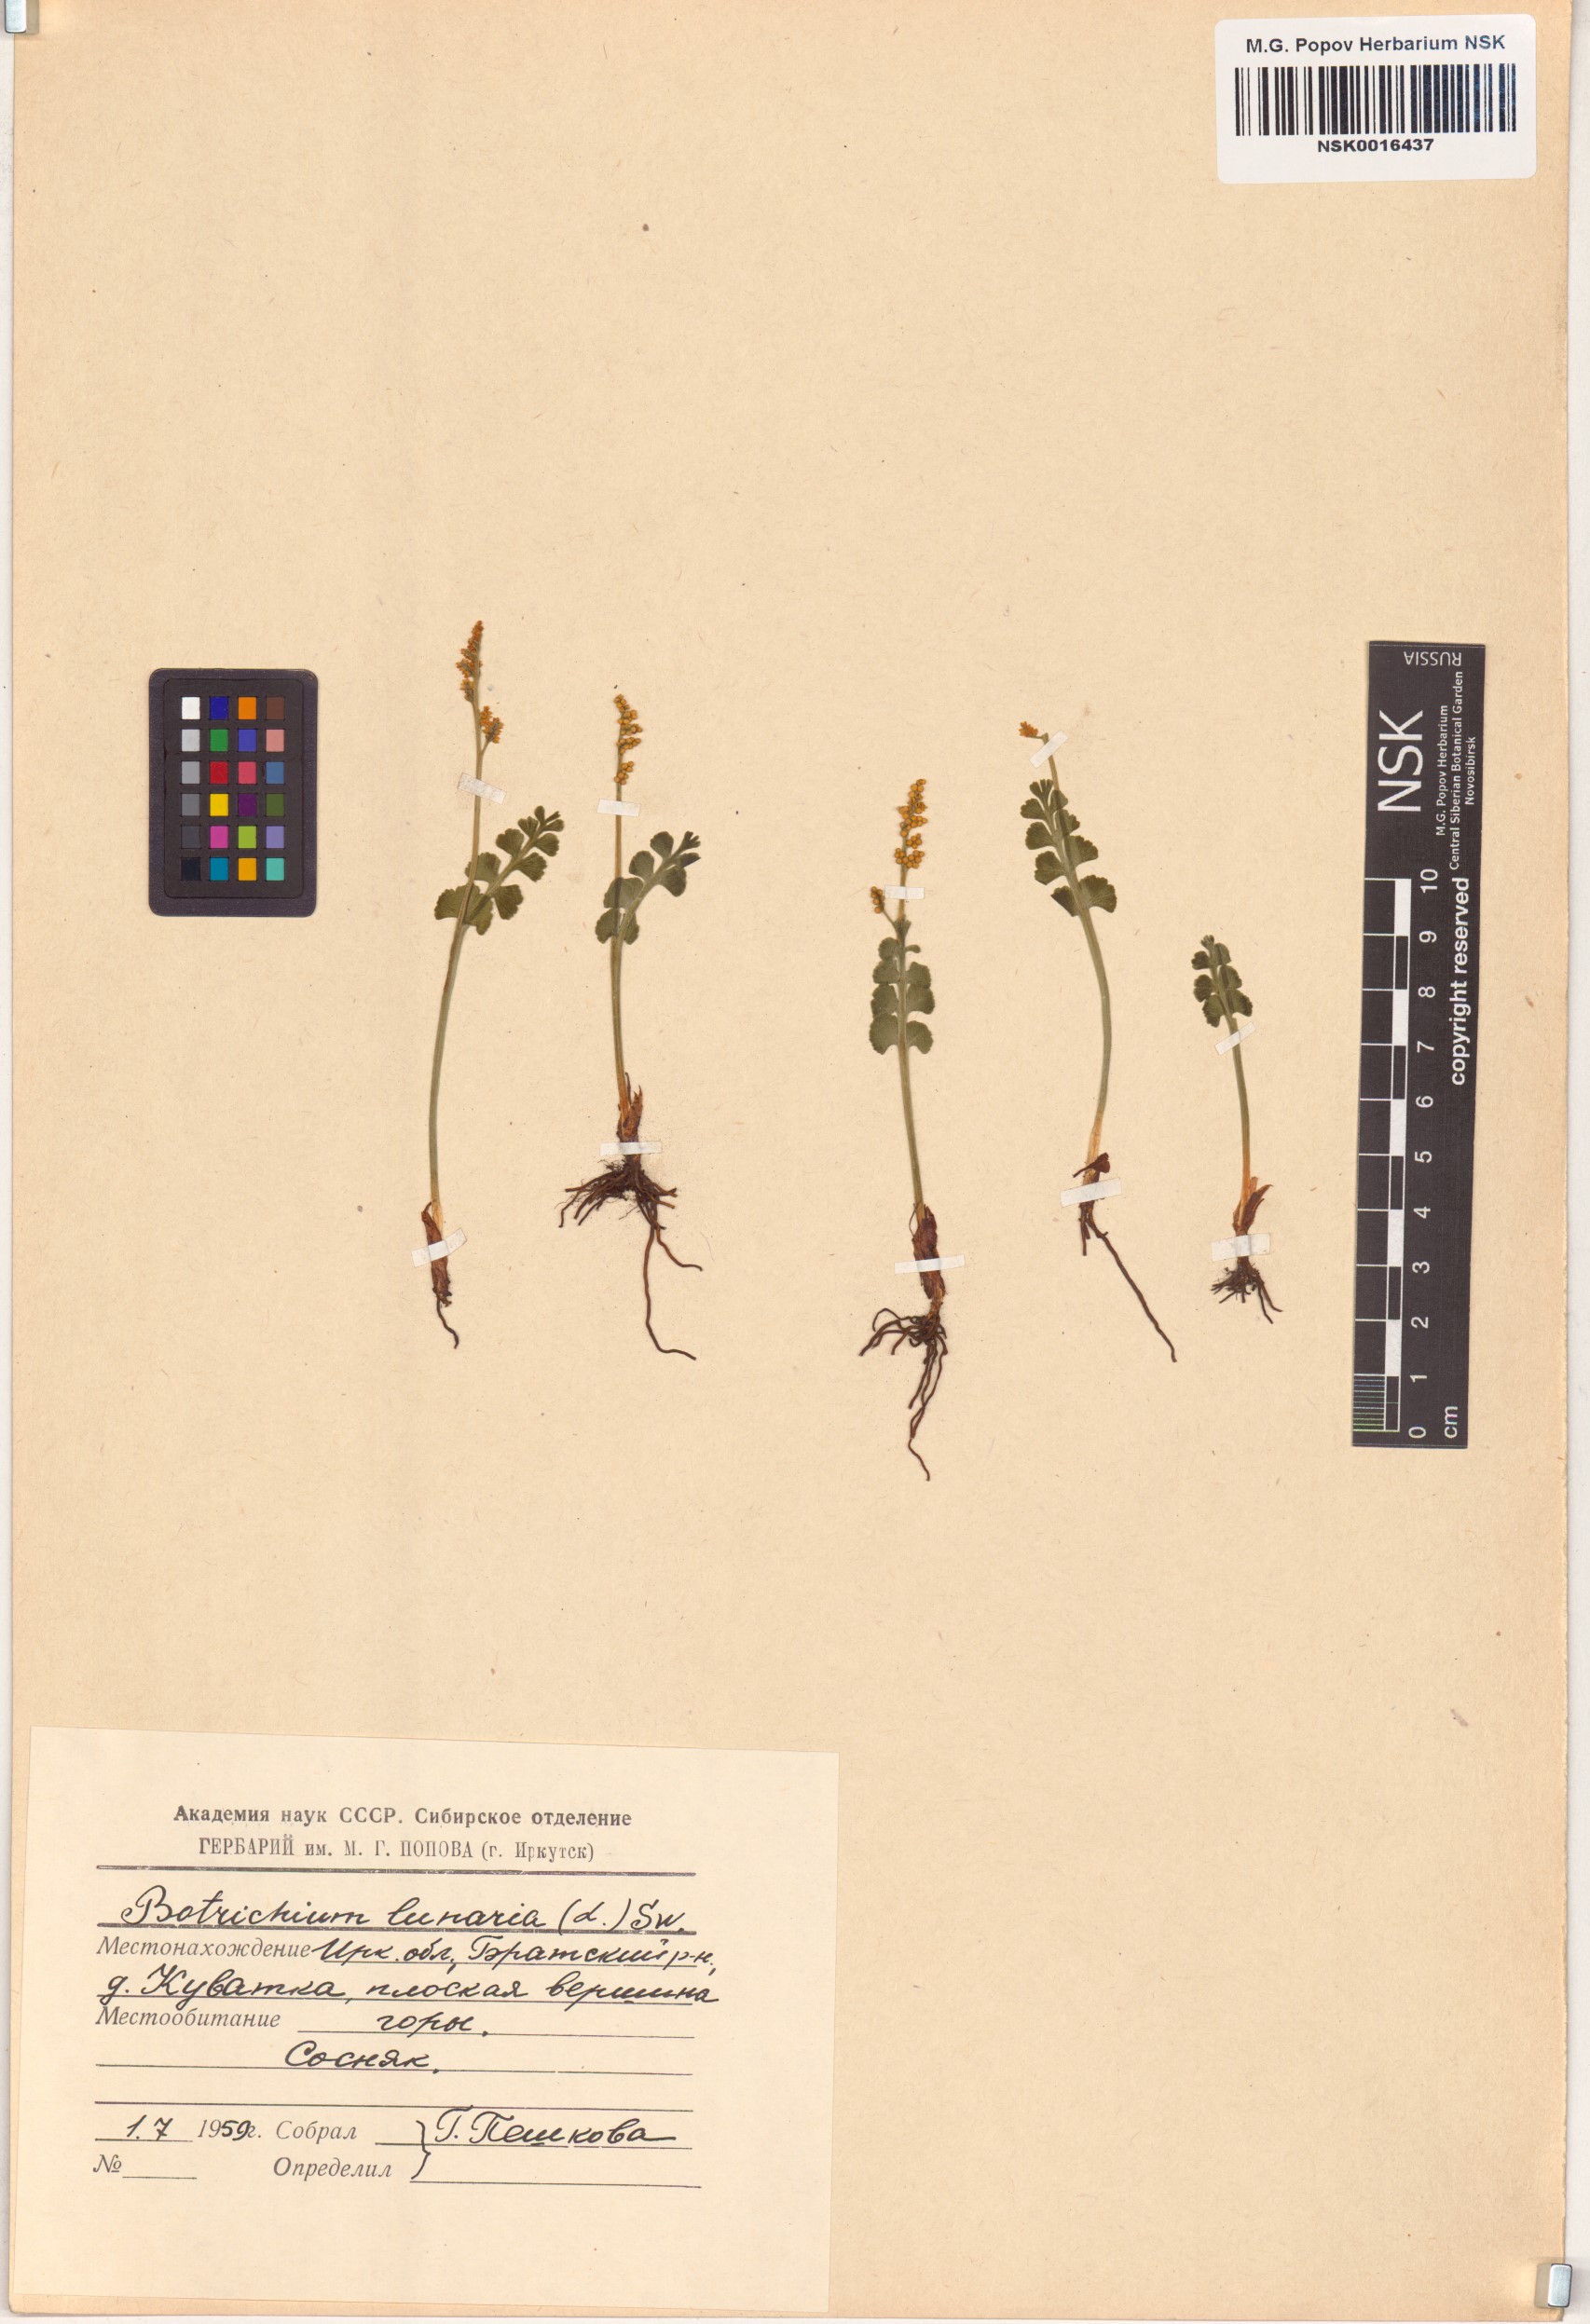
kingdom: Plantae
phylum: Tracheophyta
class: Polypodiopsida
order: Ophioglossales
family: Ophioglossaceae
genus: Botrychium
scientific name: Botrychium lunaria
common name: Moonwort
